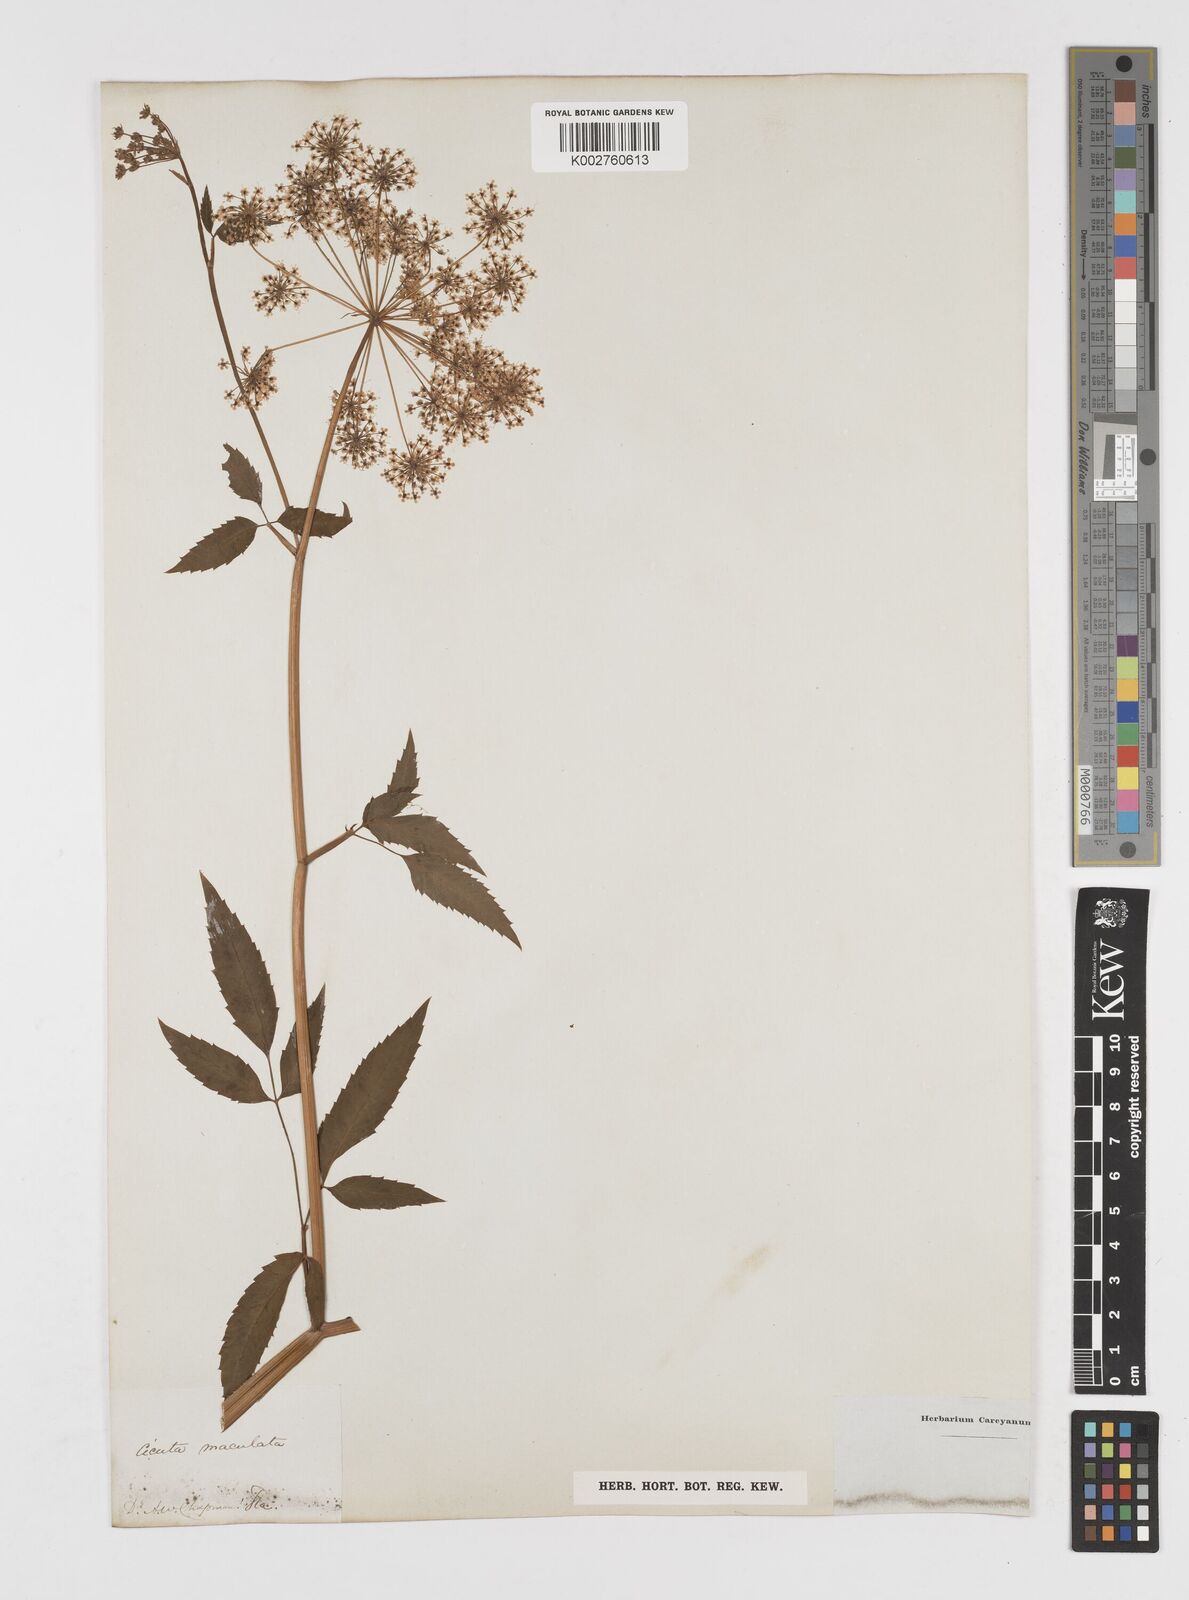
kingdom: Plantae
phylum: Tracheophyta
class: Magnoliopsida
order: Apiales
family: Apiaceae
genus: Cicuta
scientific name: Cicuta maculata
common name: Spotted cowbane
